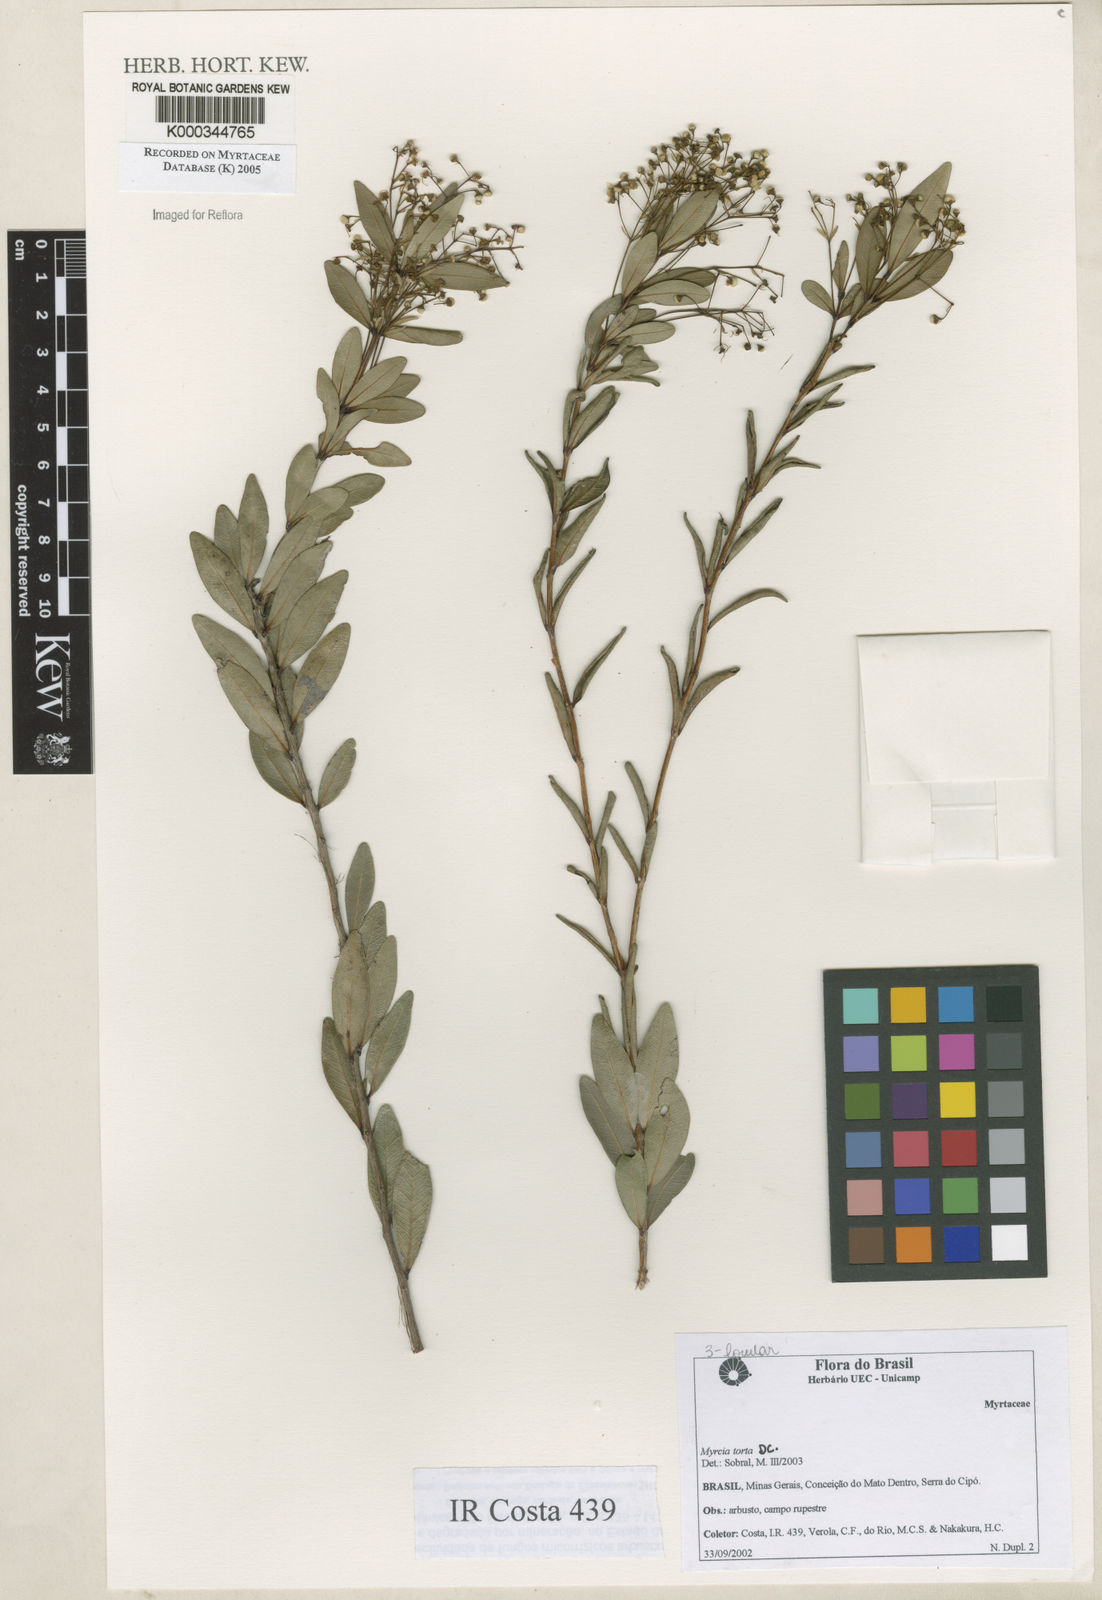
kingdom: Plantae
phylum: Tracheophyta
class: Magnoliopsida
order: Myrtales
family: Myrtaceae
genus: Myrcia
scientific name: Myrcia guianensis
